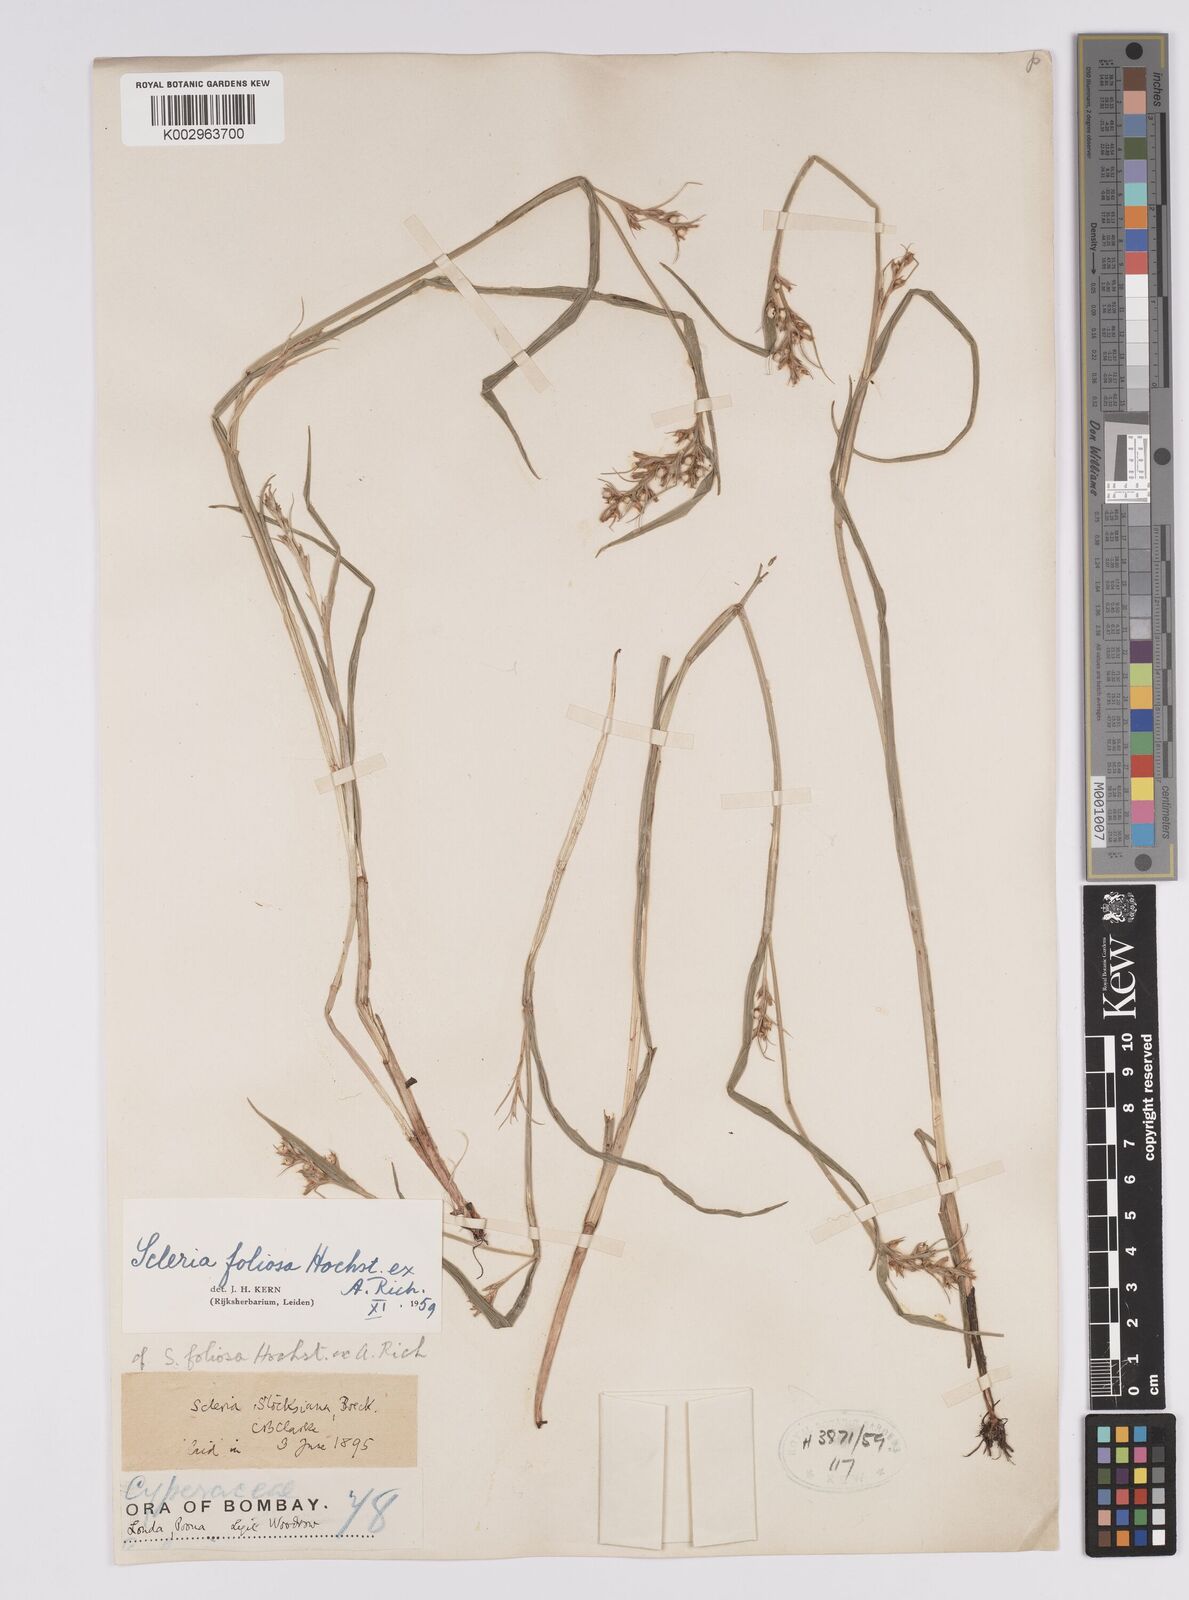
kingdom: Plantae
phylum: Tracheophyta
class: Liliopsida
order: Poales
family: Cyperaceae
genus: Scleria
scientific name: Scleria foliosa
